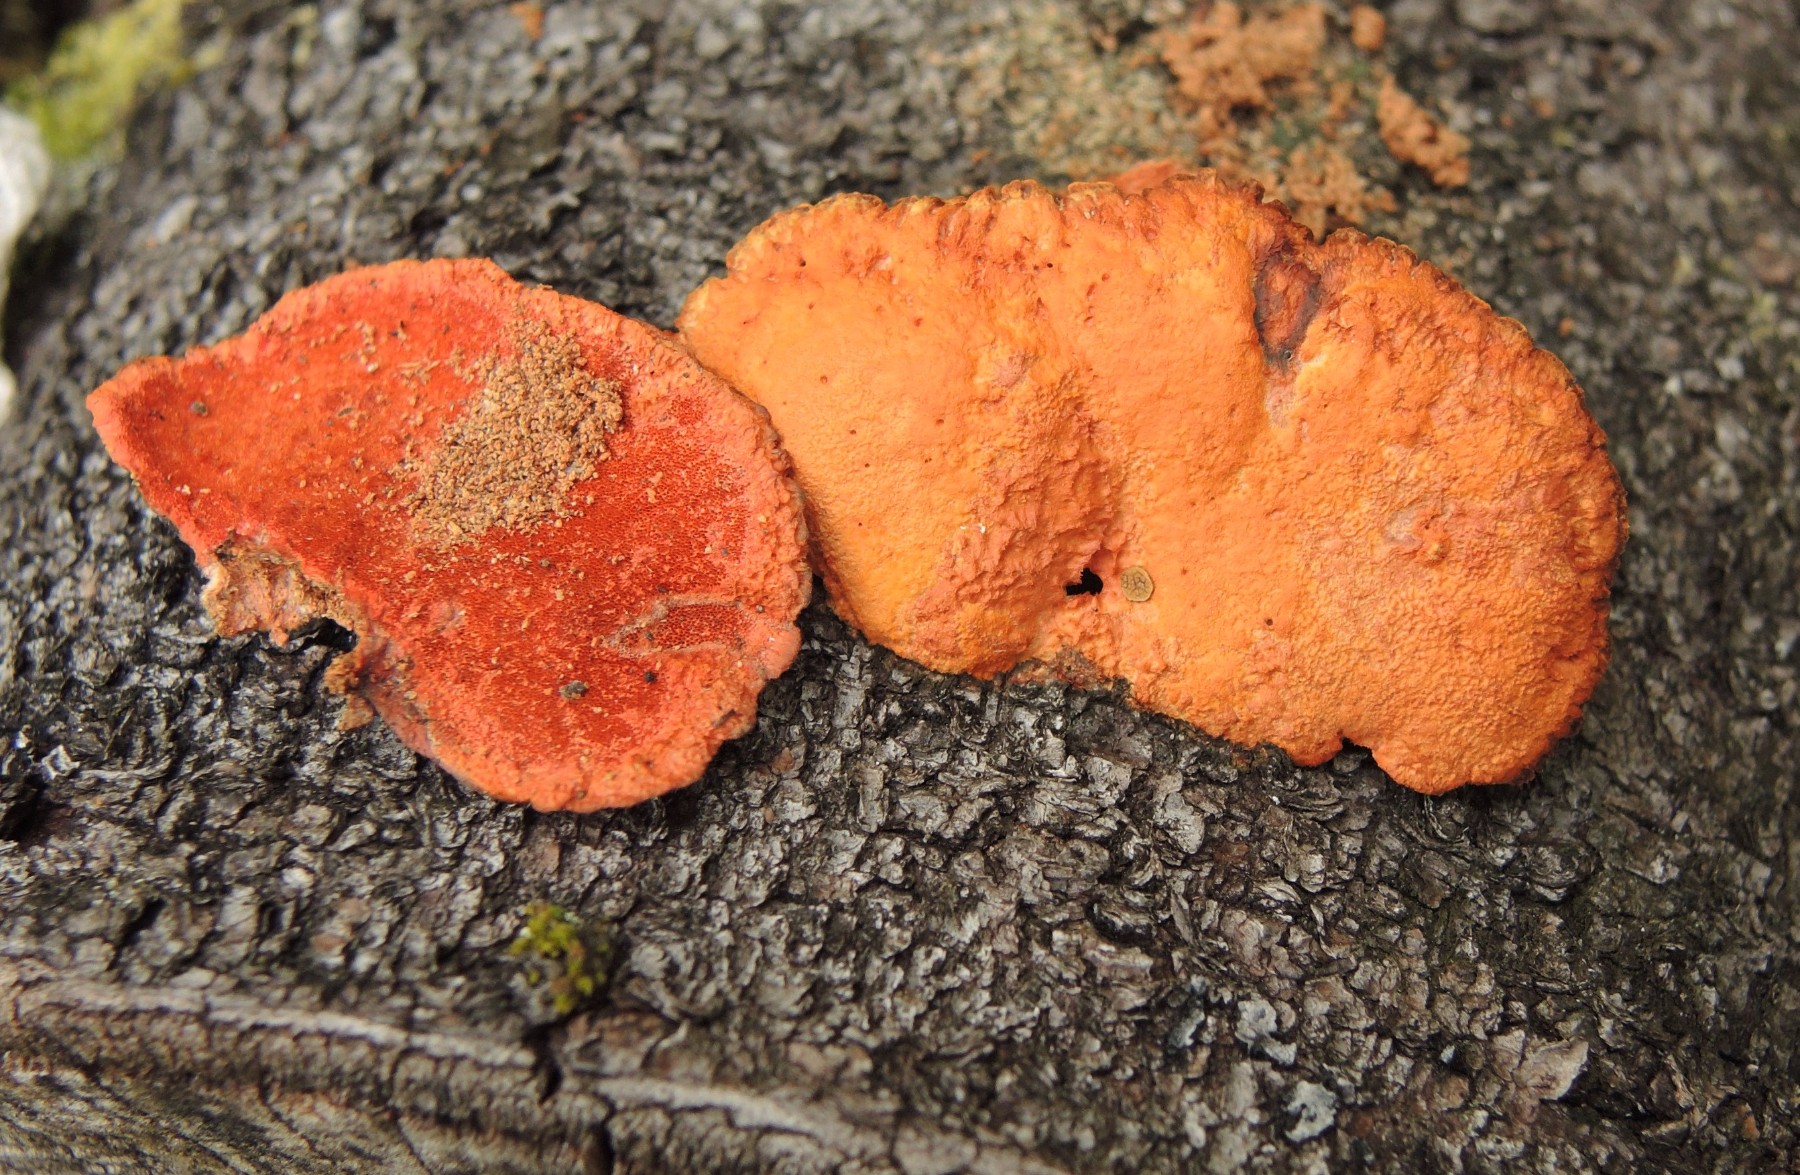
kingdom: Fungi
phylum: Basidiomycota
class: Agaricomycetes
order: Polyporales
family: Polyporaceae
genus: Trametes
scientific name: Trametes cinnabarina
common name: cinnoberporesvamp
